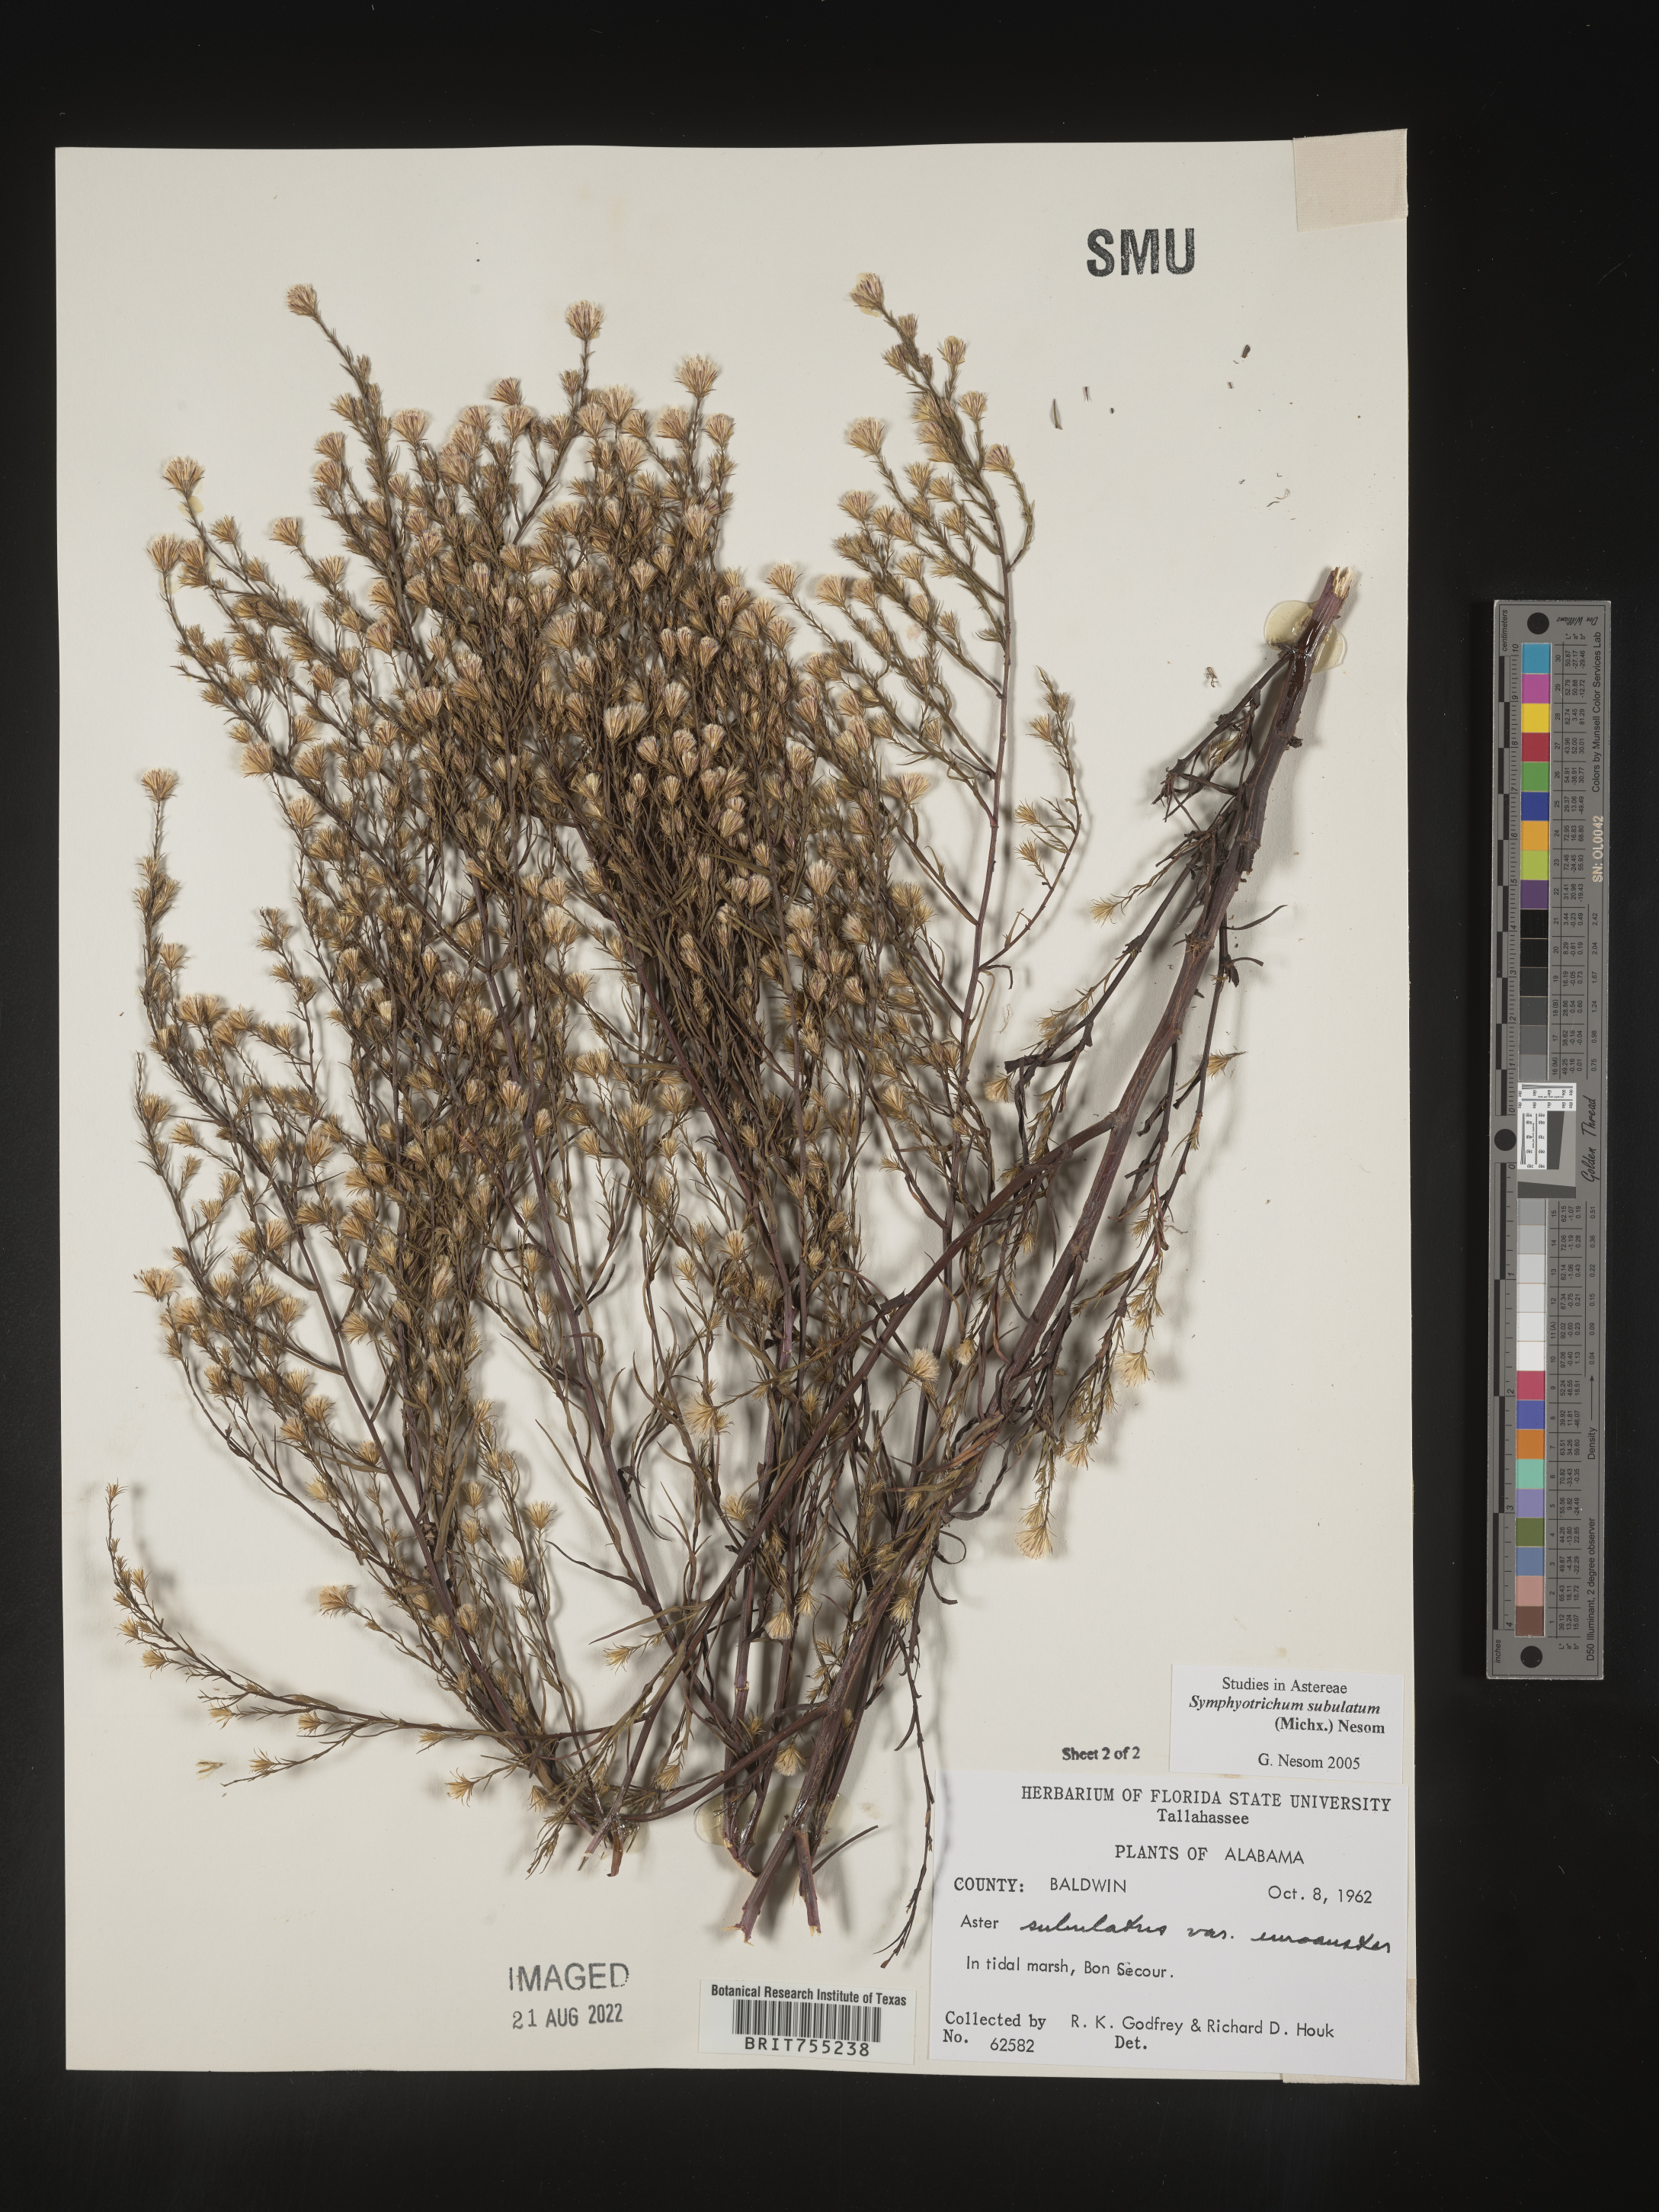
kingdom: Plantae
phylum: Tracheophyta
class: Magnoliopsida
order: Asterales
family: Asteraceae
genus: Symphyotrichum
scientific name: Symphyotrichum subulatum
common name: Annual saltmarsh aster
